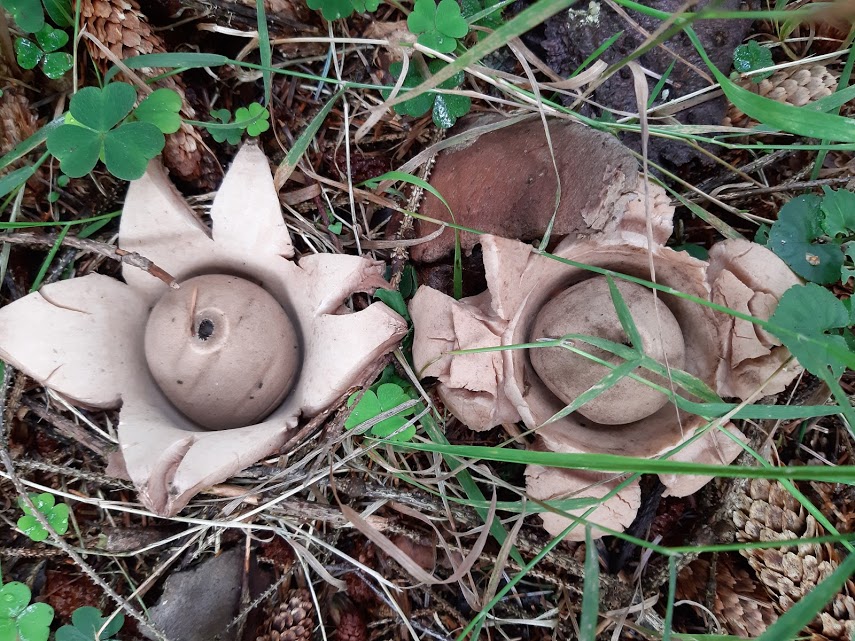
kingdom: Fungi
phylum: Basidiomycota
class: Agaricomycetes
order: Geastrales
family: Geastraceae
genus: Geastrum
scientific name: Geastrum michelianum
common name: kødet stjernebold
